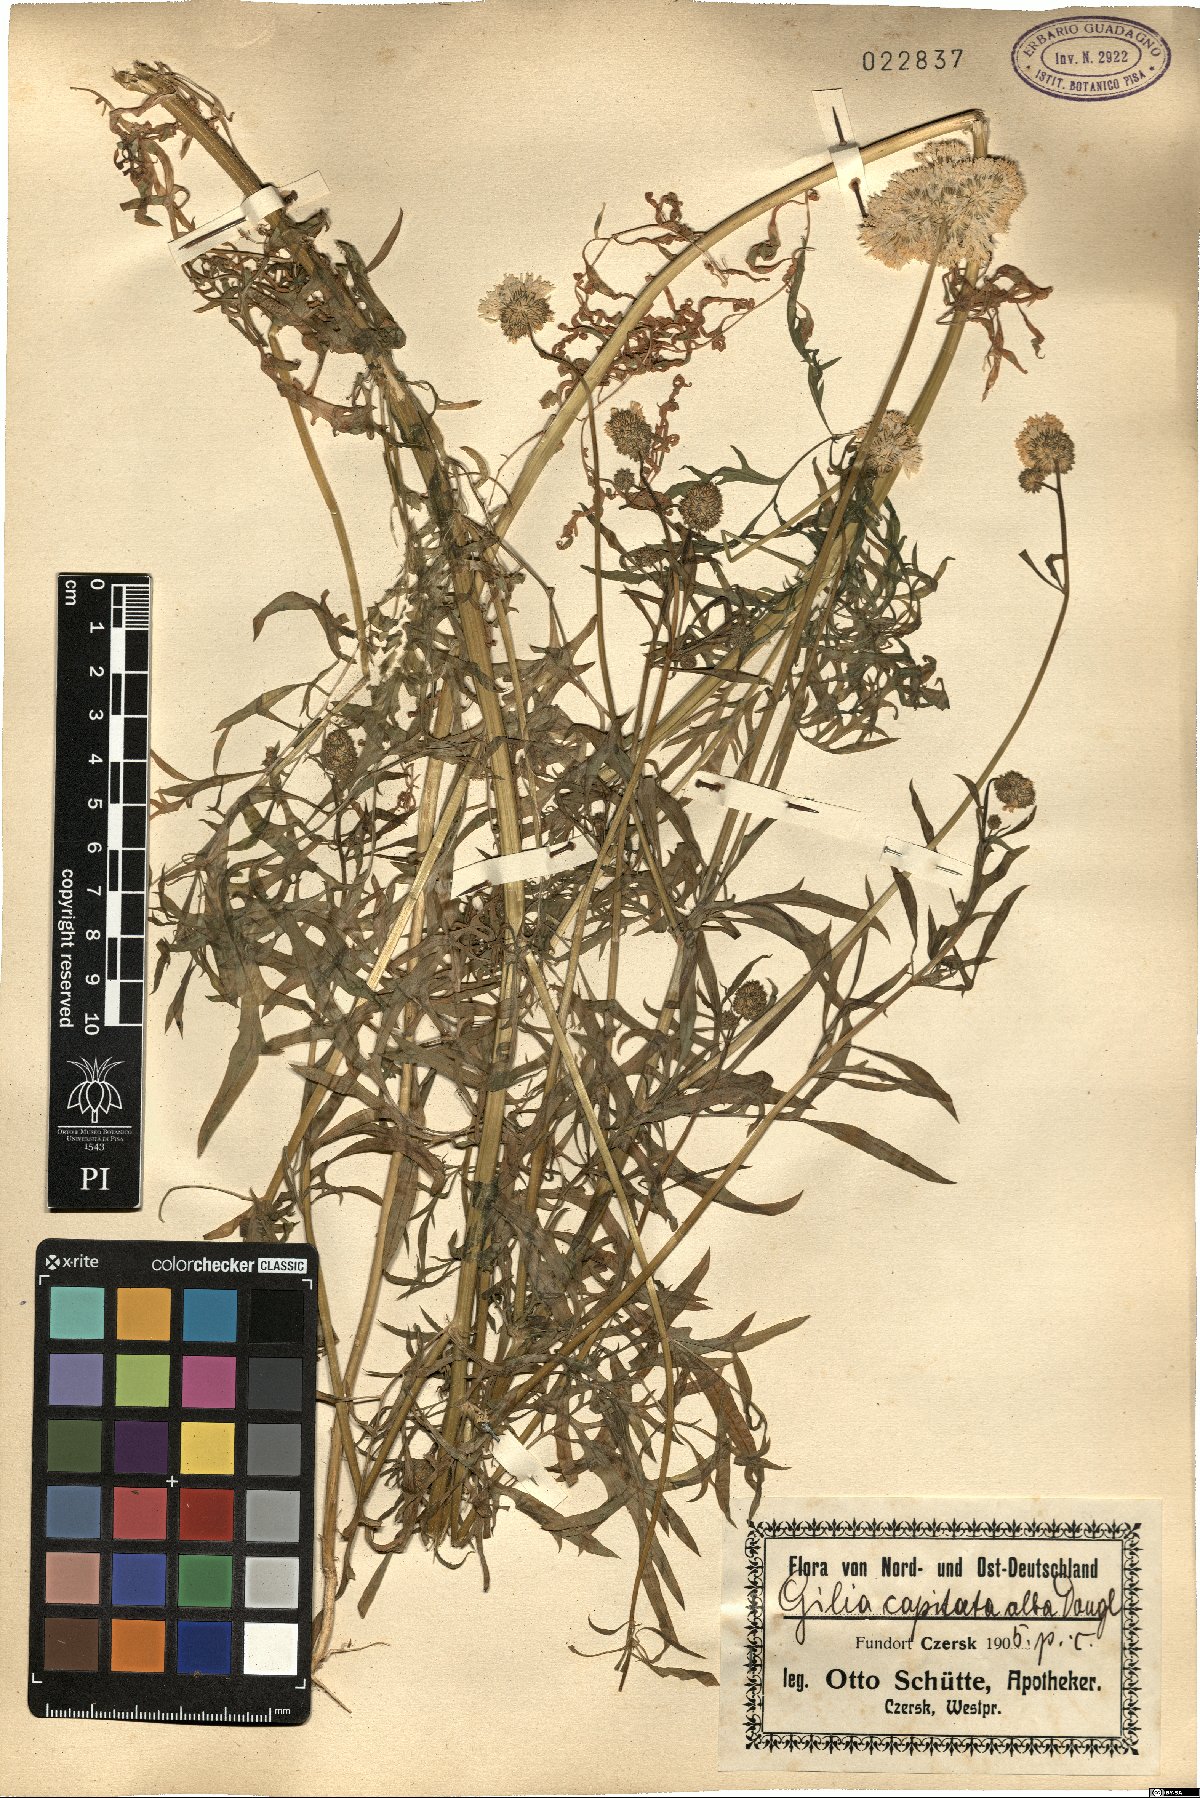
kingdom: Plantae
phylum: Tracheophyta
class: Magnoliopsida
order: Ericales
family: Polemoniaceae
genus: Gilia
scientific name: Gilia capitata
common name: Bluehead gilia
